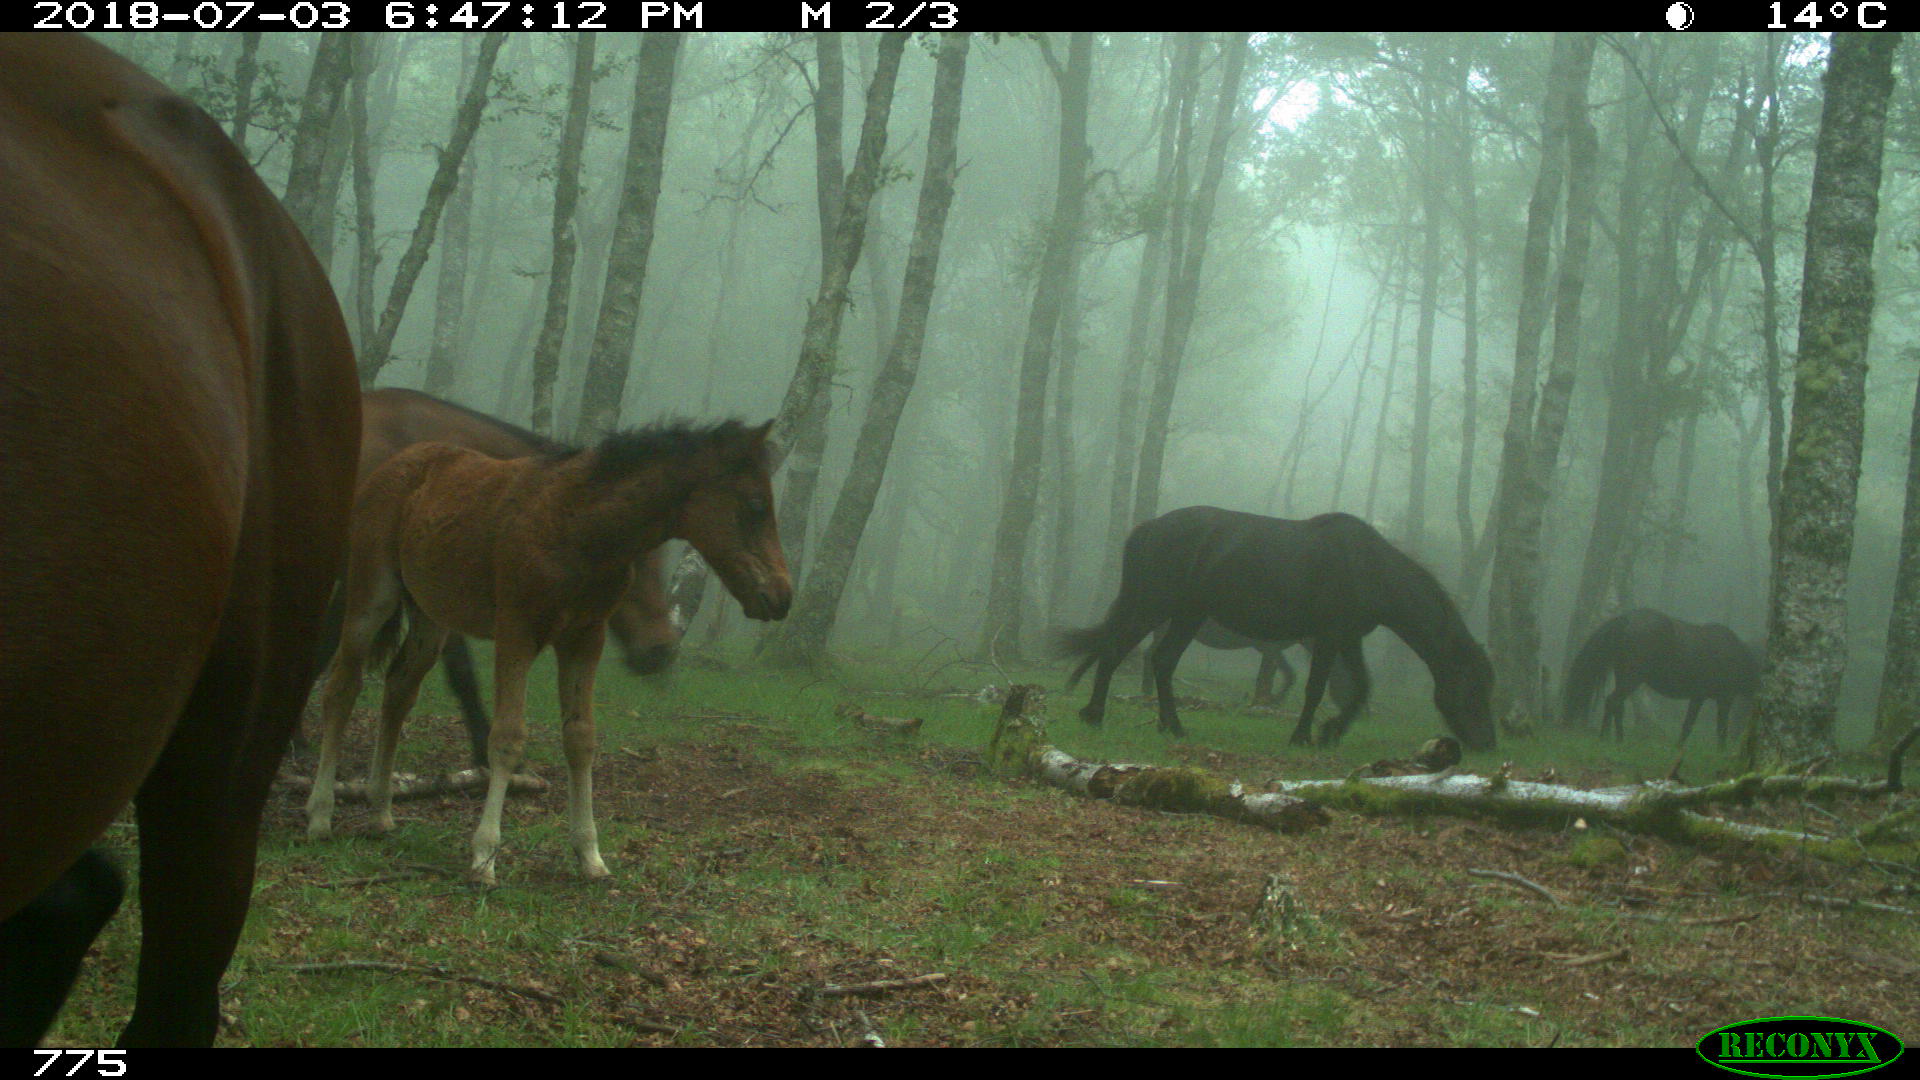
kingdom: Animalia
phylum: Chordata
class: Mammalia
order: Perissodactyla
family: Equidae
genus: Equus
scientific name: Equus caballus
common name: Horse
